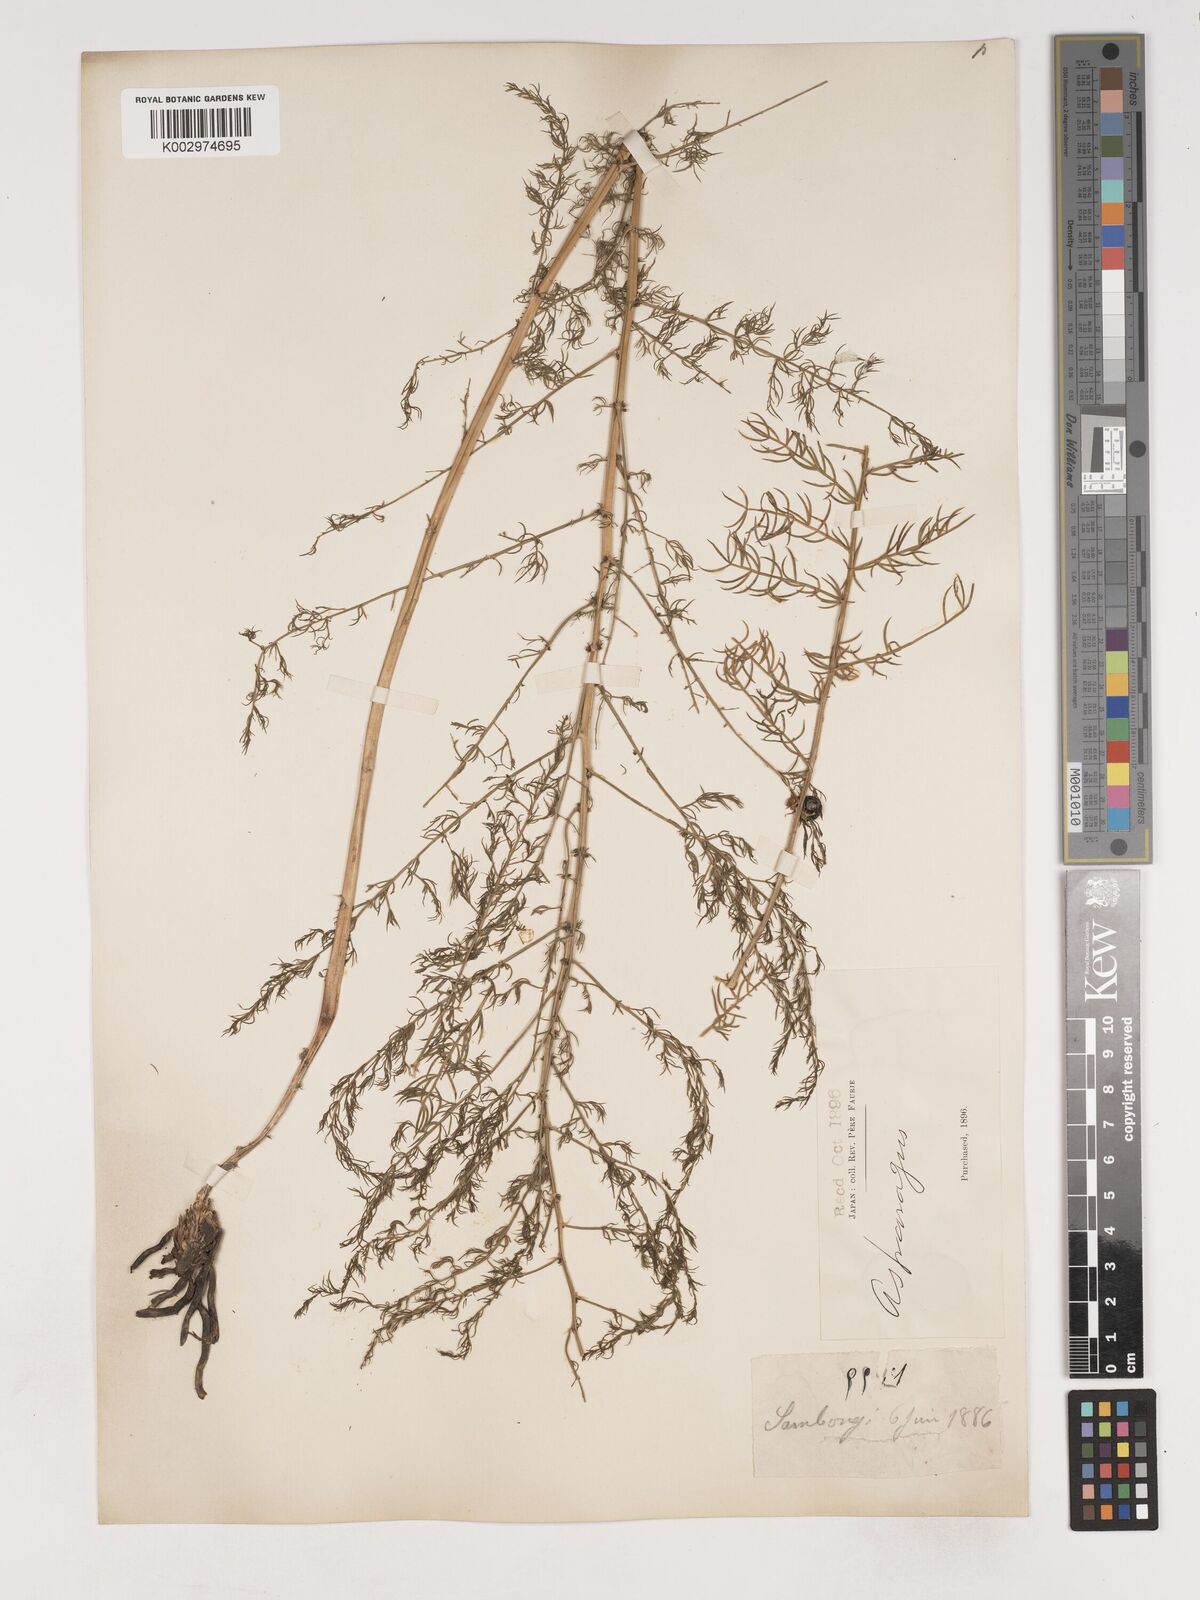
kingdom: Plantae
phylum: Tracheophyta
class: Liliopsida
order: Asparagales
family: Asparagaceae
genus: Asparagus
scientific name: Asparagus schoberioides
